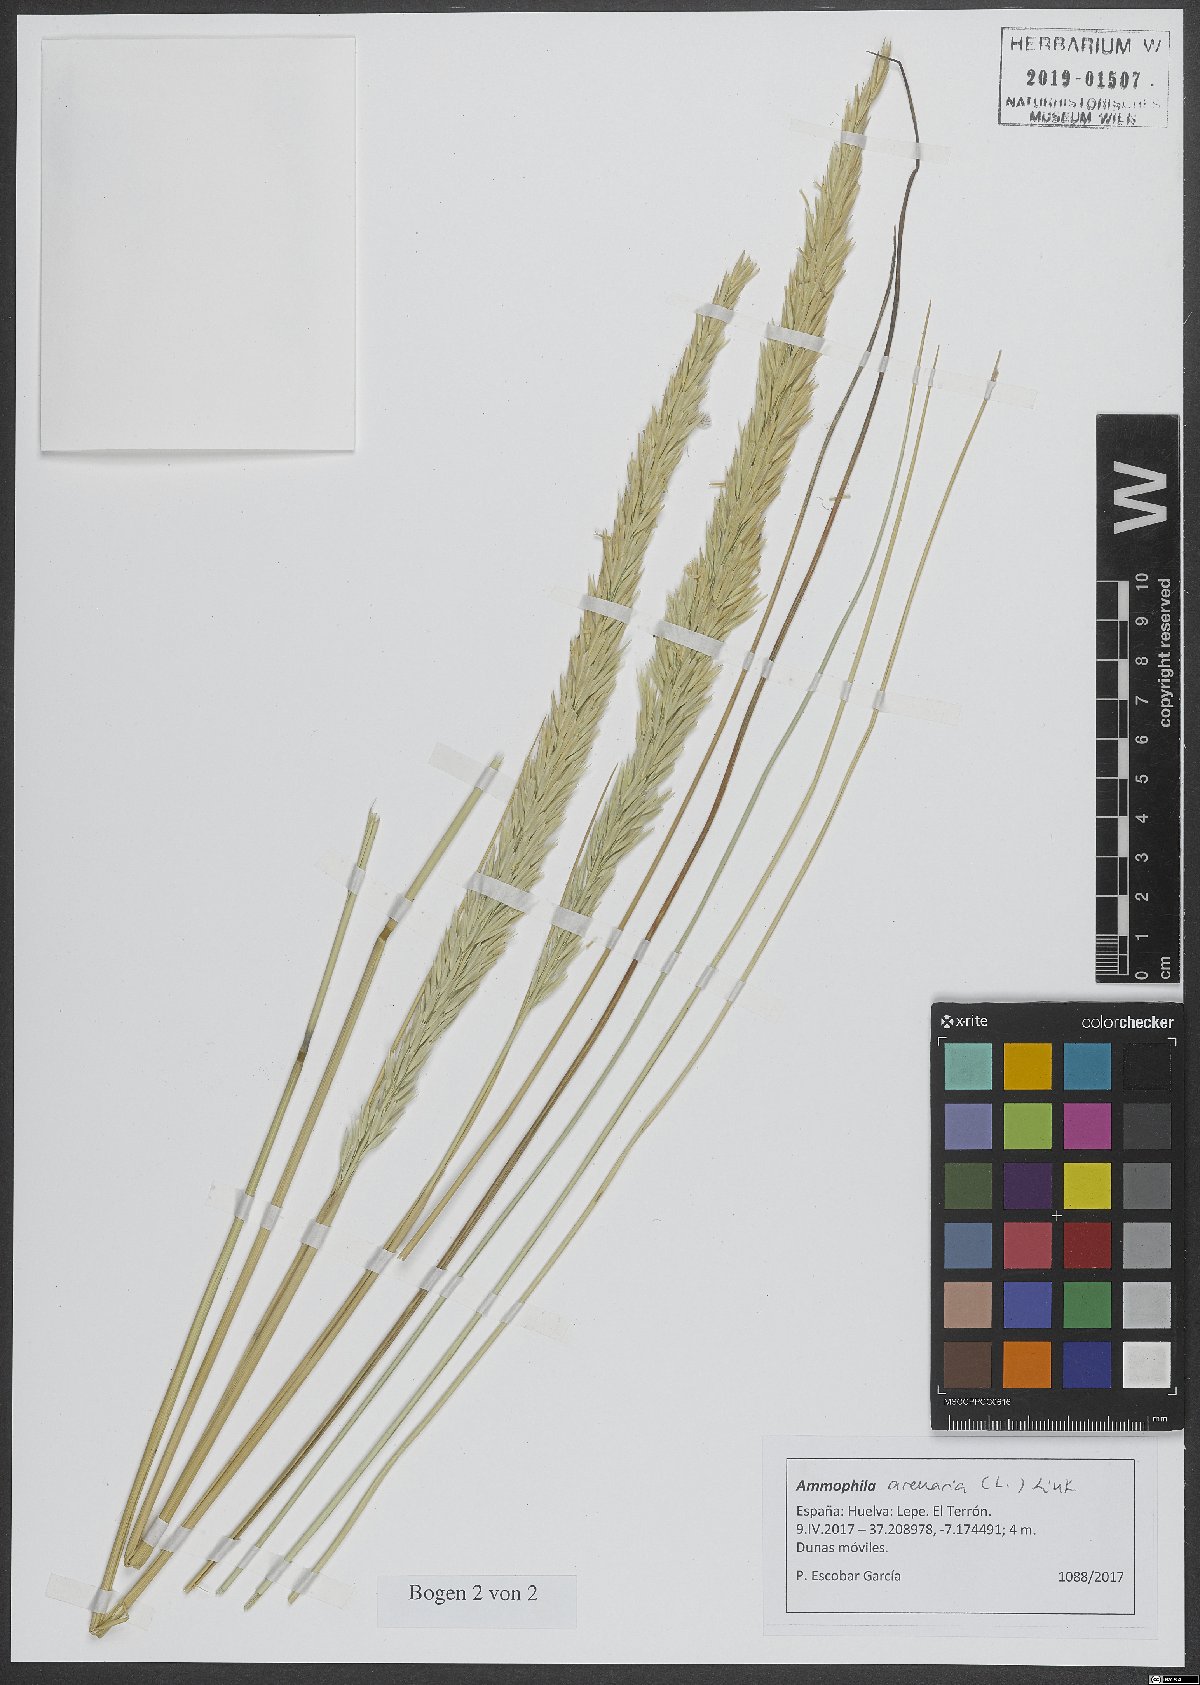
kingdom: Plantae
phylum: Tracheophyta
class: Liliopsida
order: Poales
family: Poaceae
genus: Calamagrostis
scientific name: Calamagrostis arenaria
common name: European beachgrass
